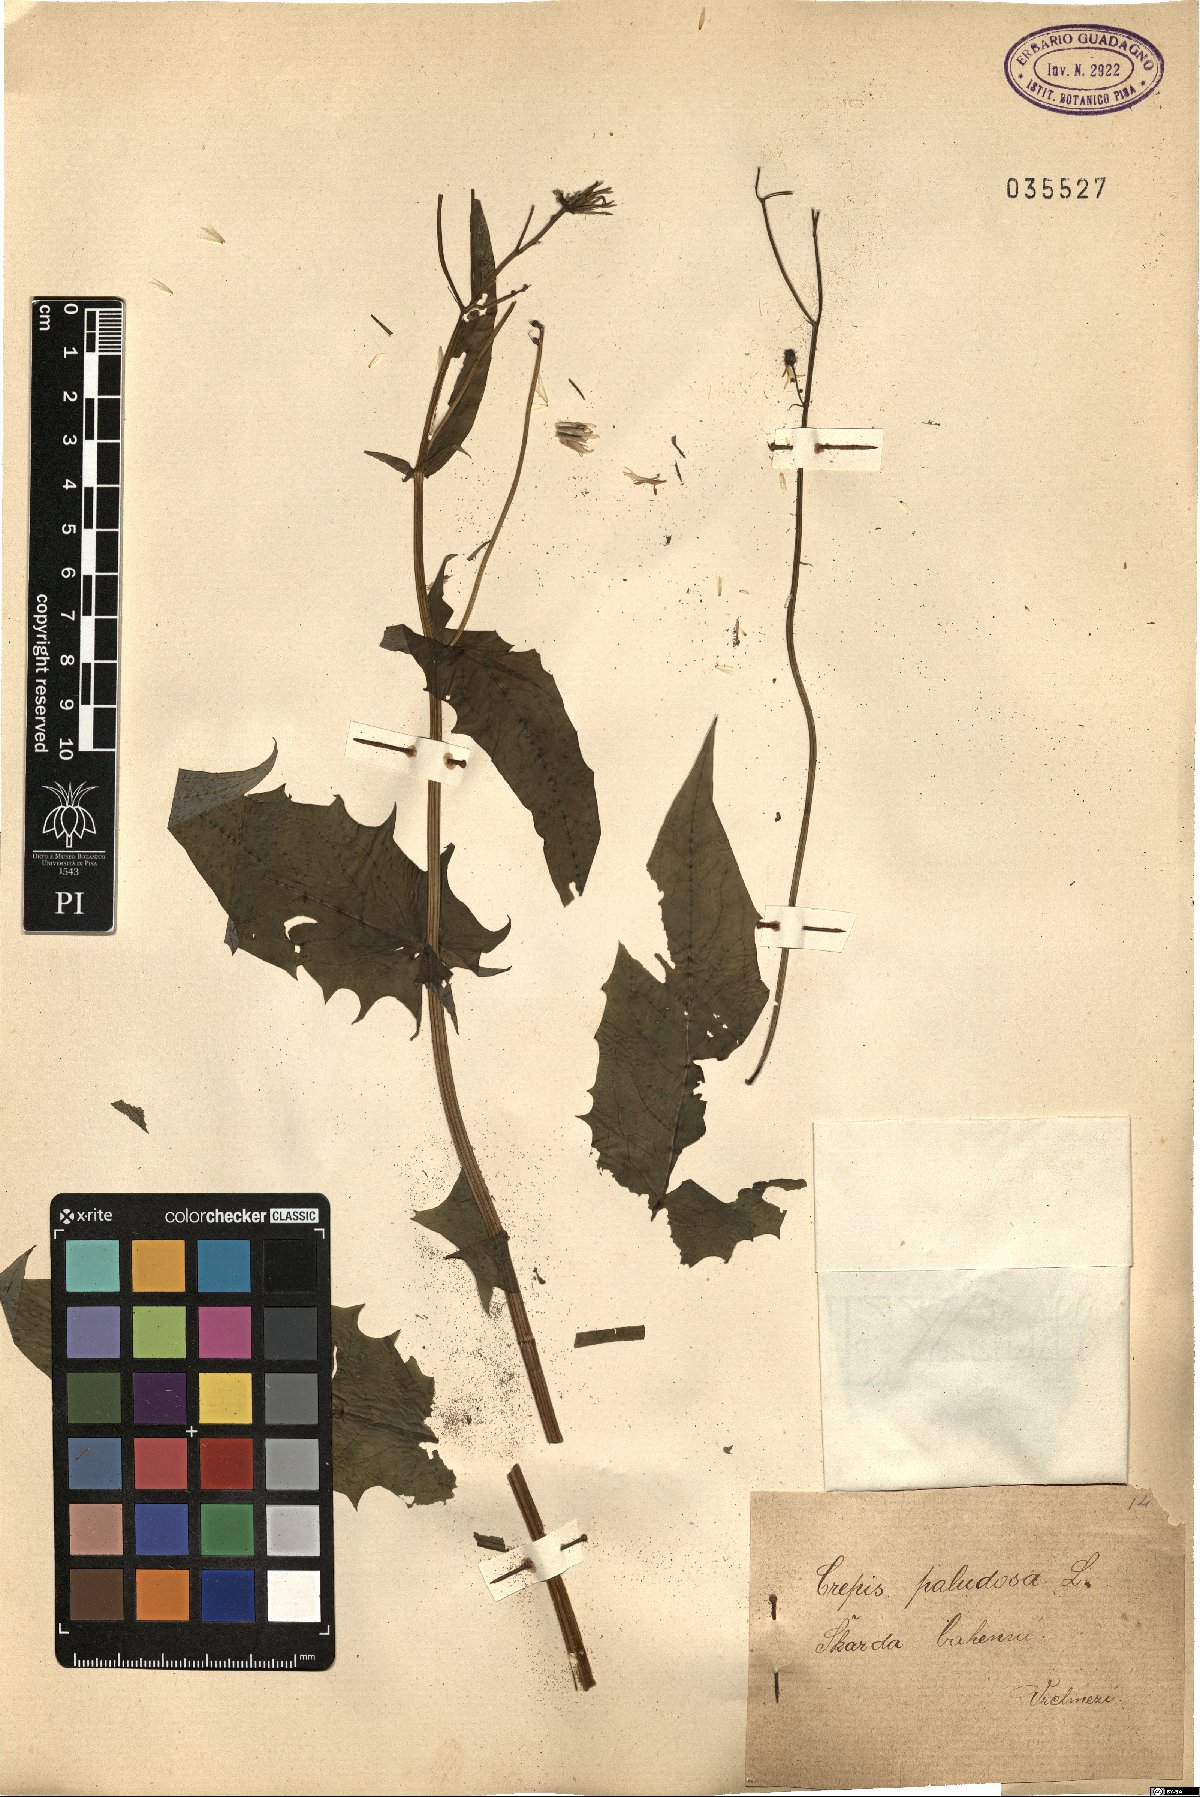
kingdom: Plantae
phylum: Tracheophyta
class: Magnoliopsida
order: Asterales
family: Asteraceae
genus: Crepis
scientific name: Crepis paludosa
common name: Marsh hawk's-beard
